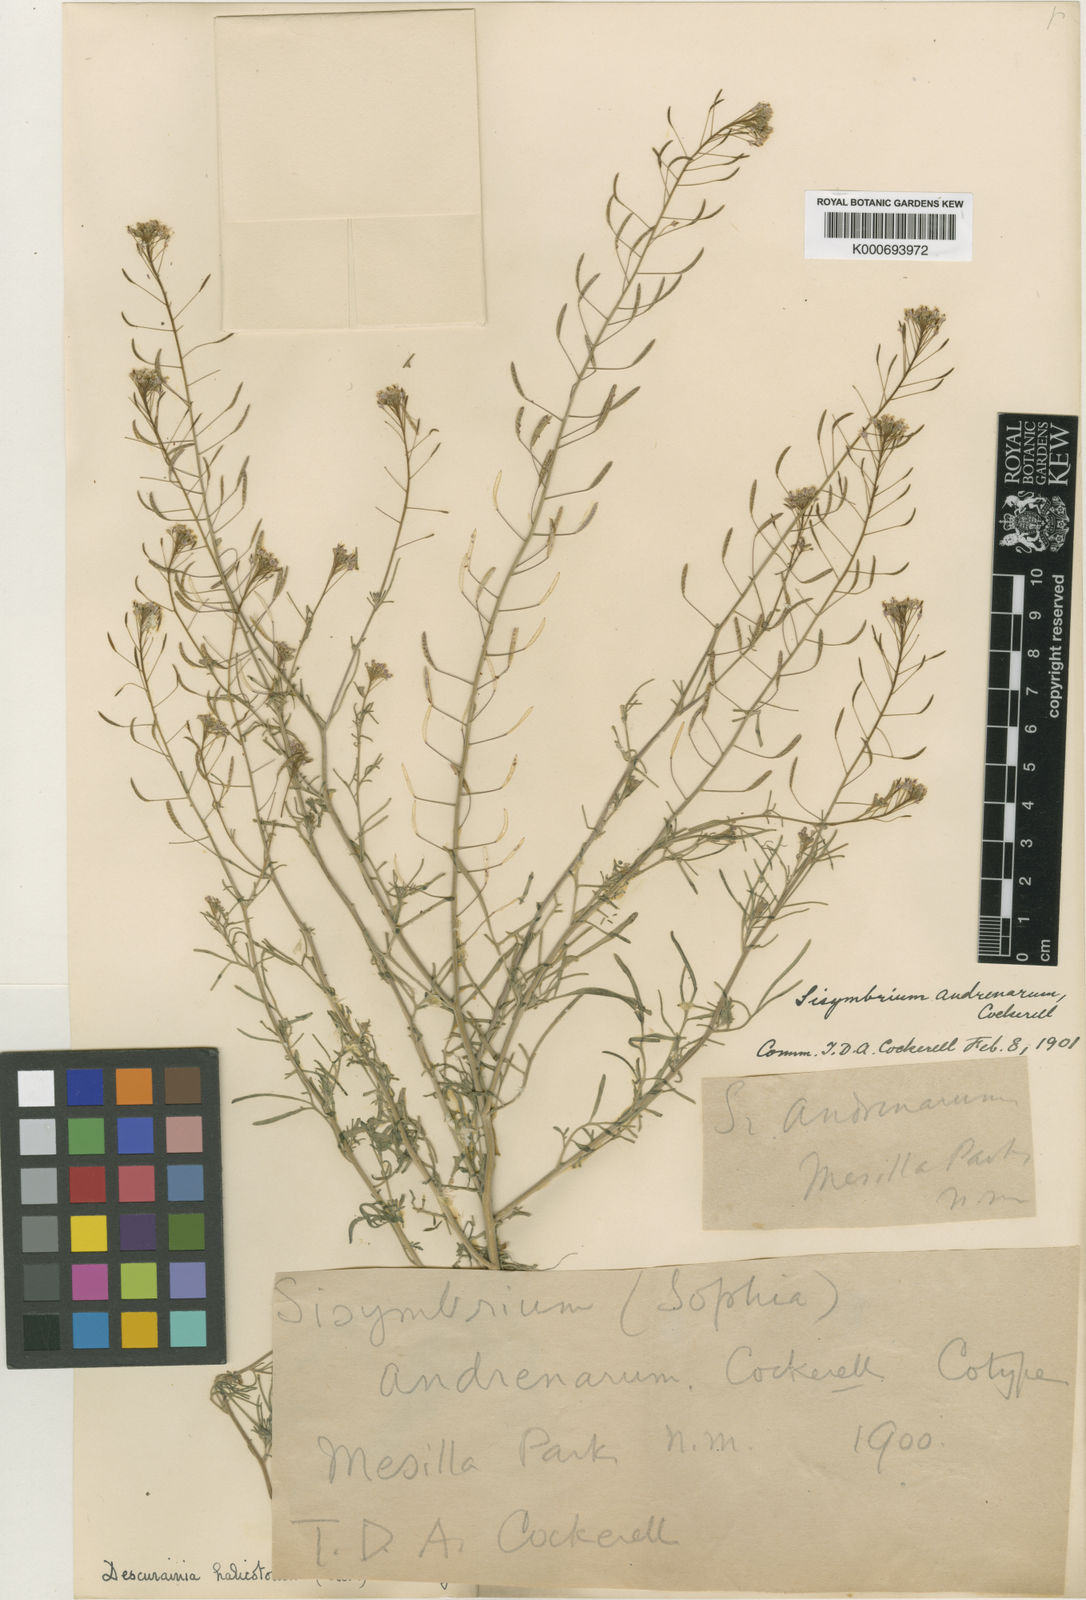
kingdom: Plantae
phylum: Tracheophyta
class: Magnoliopsida
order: Brassicales
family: Brassicaceae
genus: Sisymbrium
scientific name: Sisymbrium
